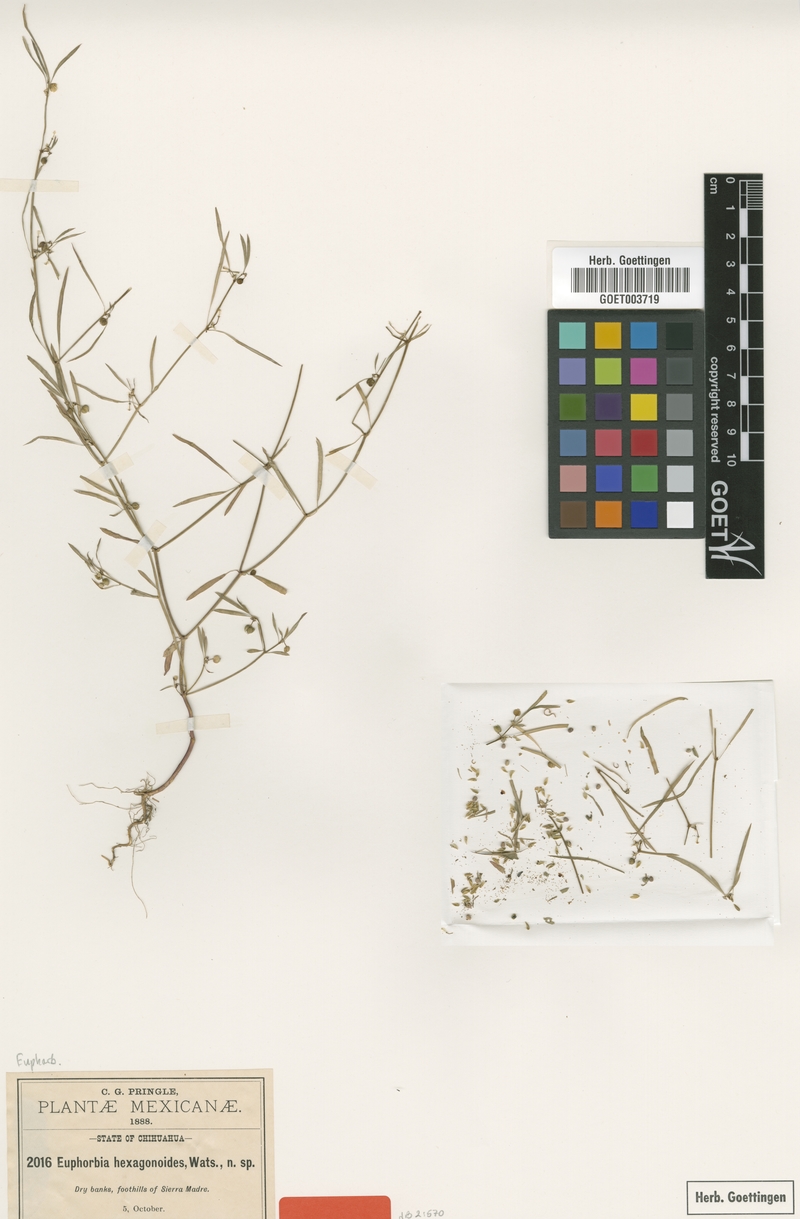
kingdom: Plantae
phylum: Tracheophyta
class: Magnoliopsida
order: Malpighiales
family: Euphorbiaceae
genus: Euphorbia
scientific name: Euphorbia hexagonoides
